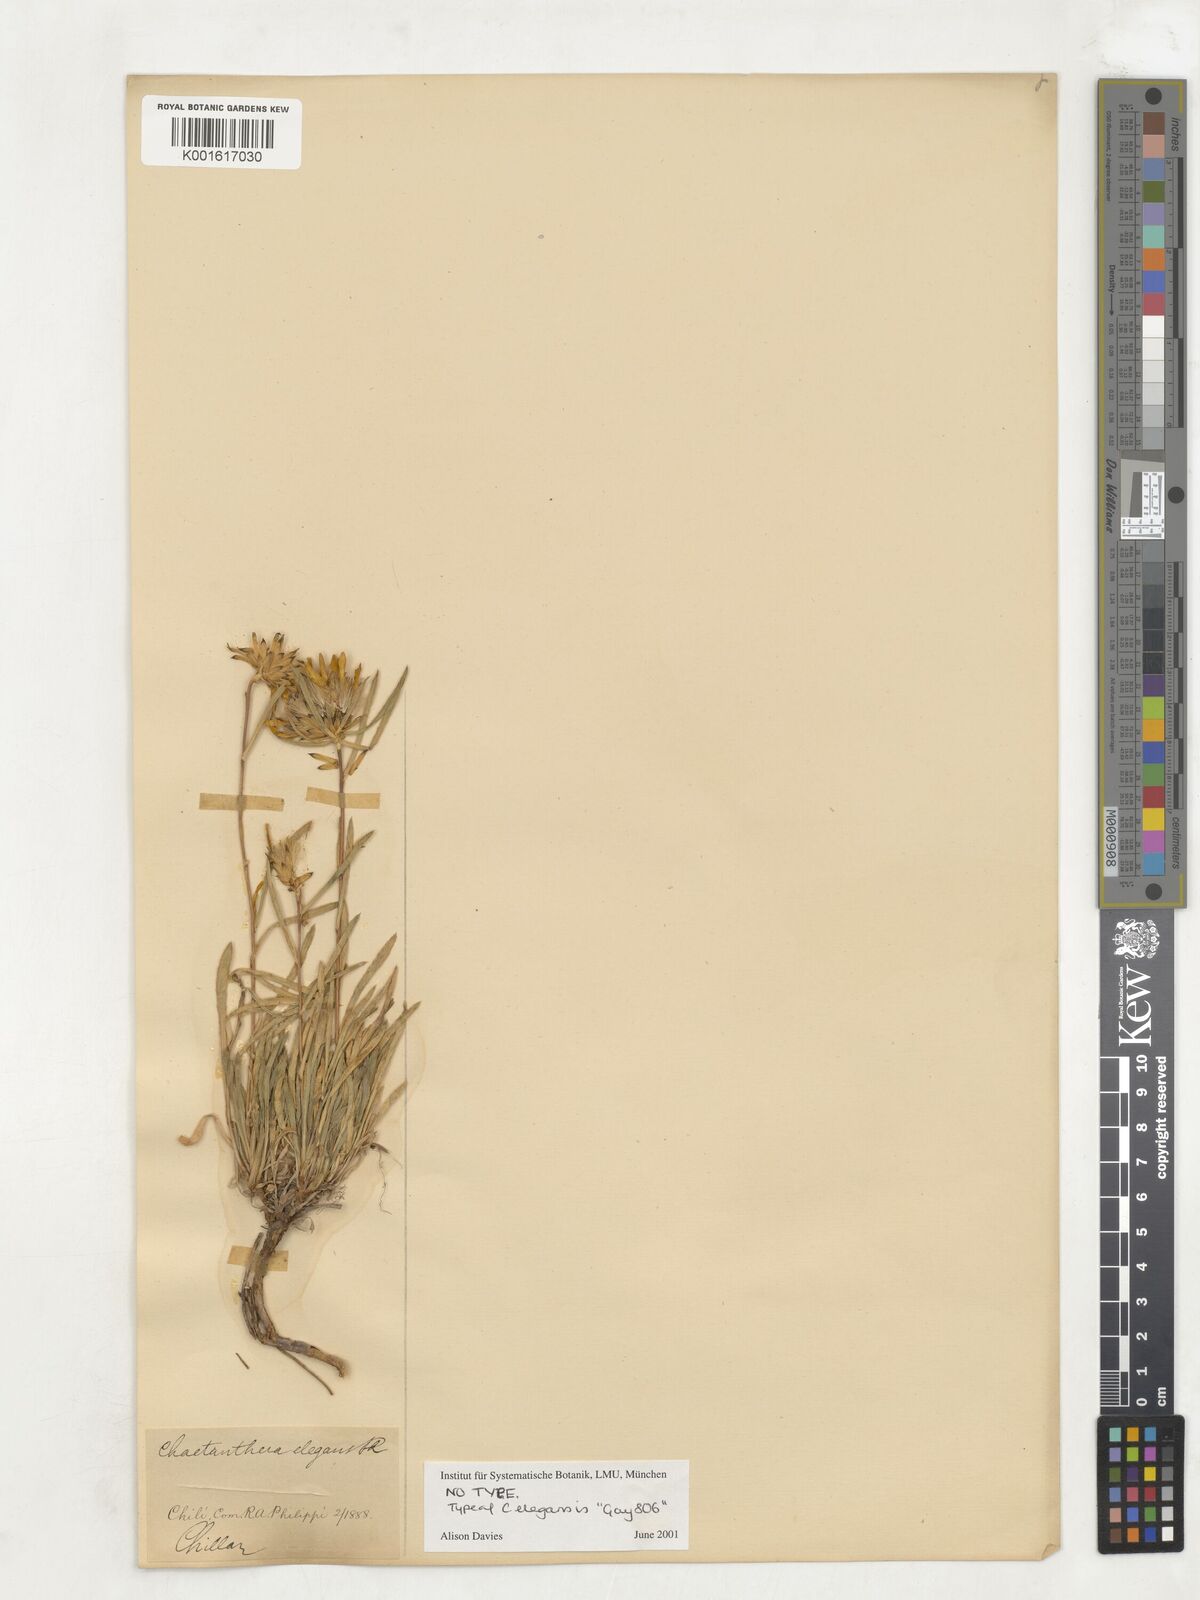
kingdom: Plantae
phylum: Tracheophyta
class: Magnoliopsida
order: Asterales
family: Asteraceae
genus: Chaetanthera
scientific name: Chaetanthera elegans
